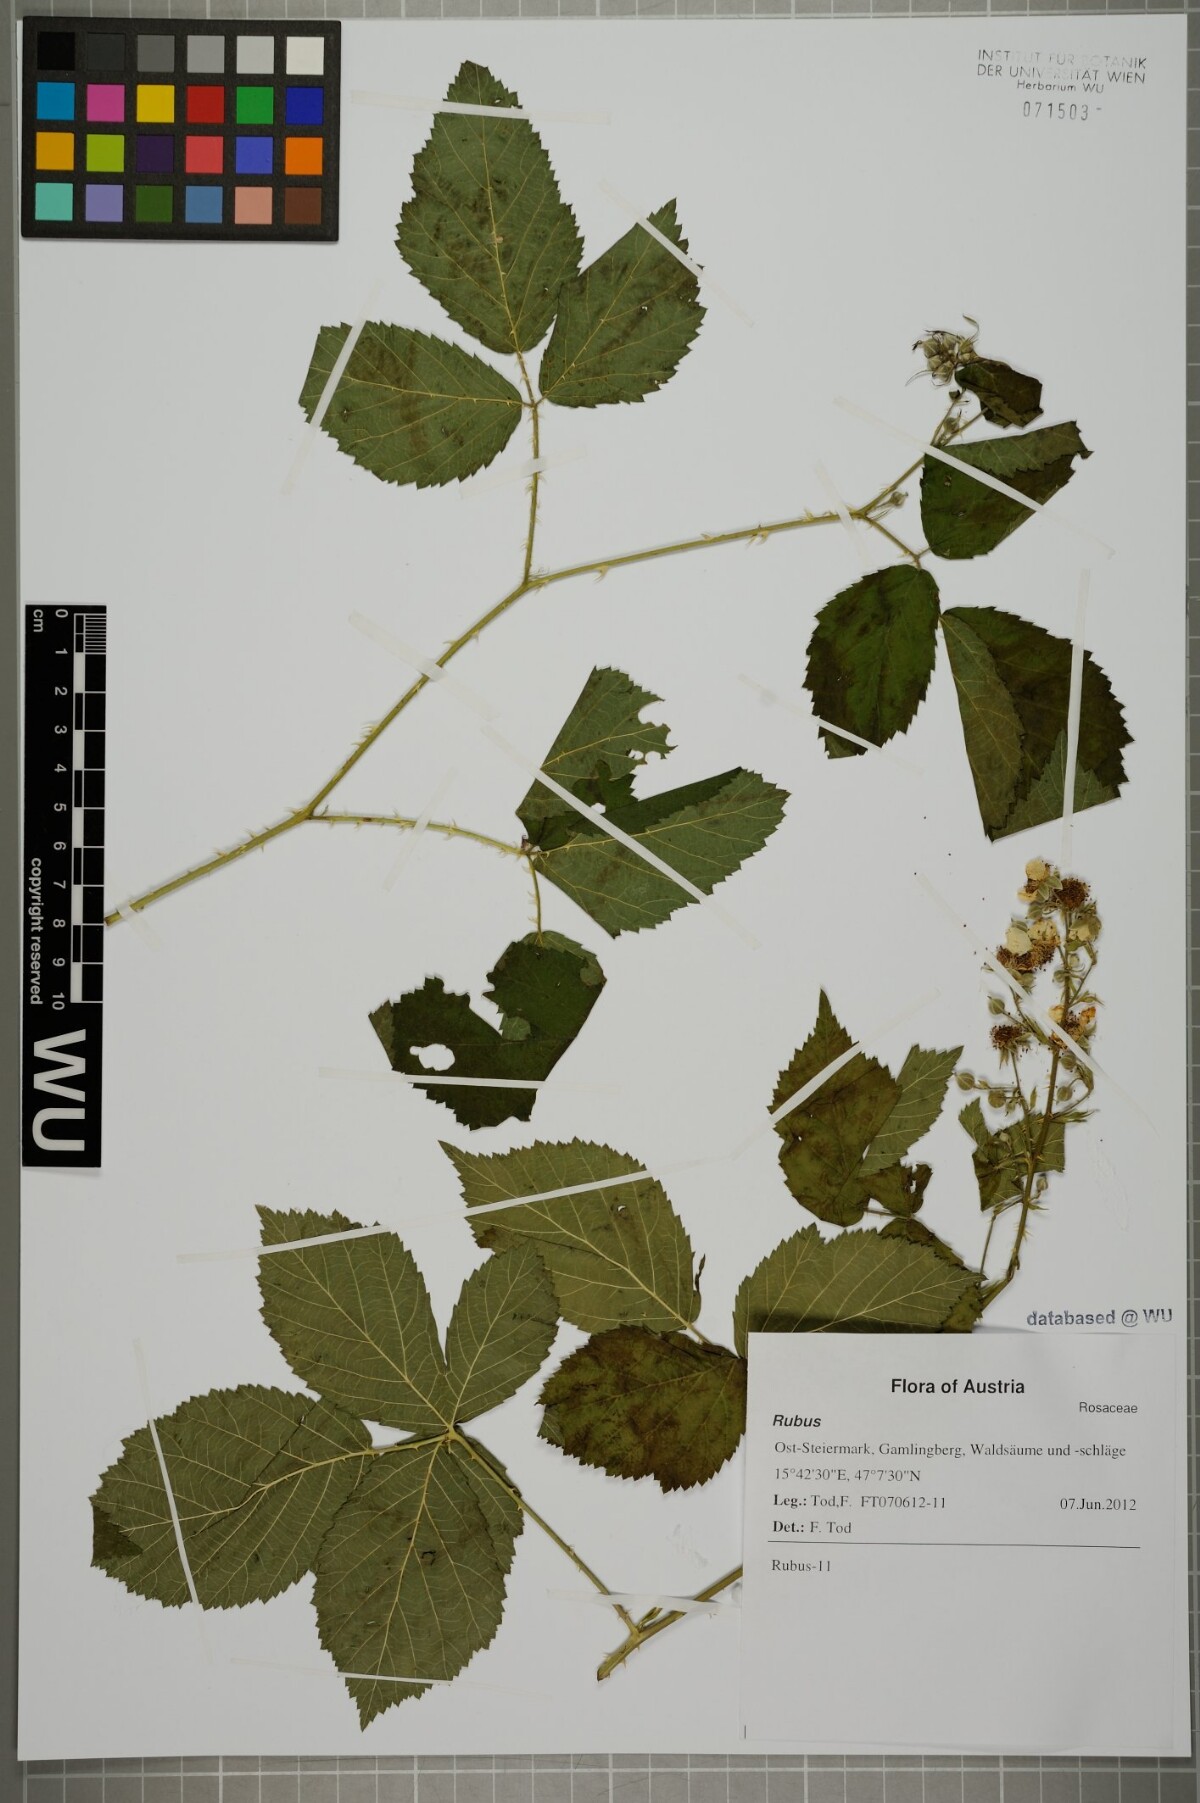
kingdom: Plantae
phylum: Tracheophyta
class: Magnoliopsida
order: Rosales
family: Rosaceae
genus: Rubus
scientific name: Rubus clusii
